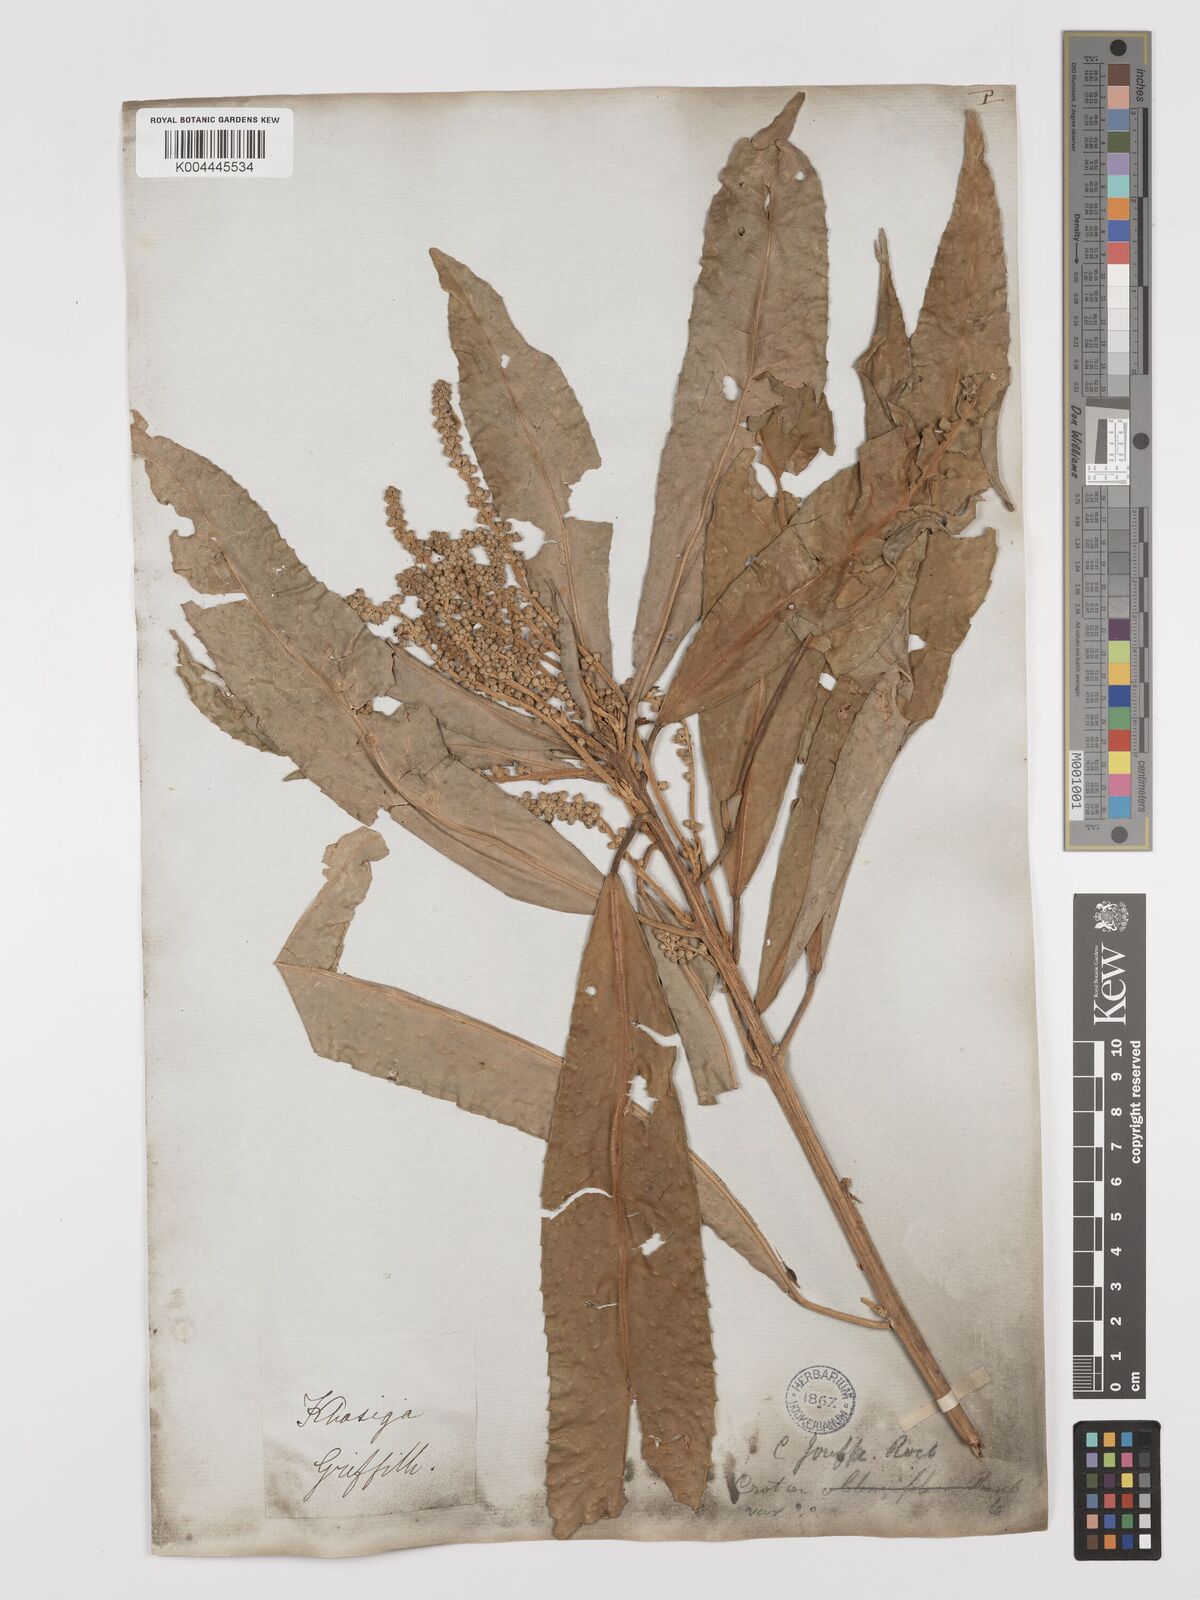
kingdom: Plantae
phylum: Tracheophyta
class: Magnoliopsida
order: Malpighiales
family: Euphorbiaceae
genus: Croton
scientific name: Croton joufra
